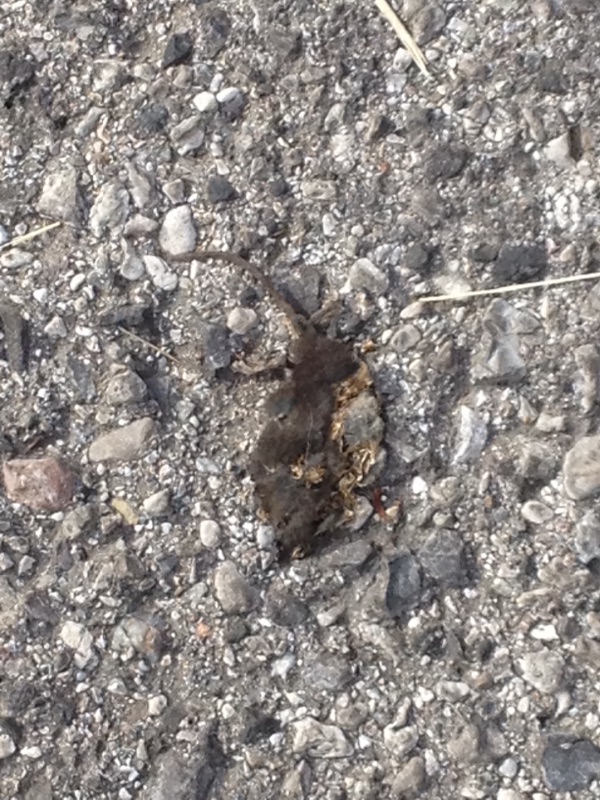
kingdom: Animalia
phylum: Chordata
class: Mammalia
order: Soricomorpha
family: Soricidae
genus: Neomys
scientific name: Neomys
